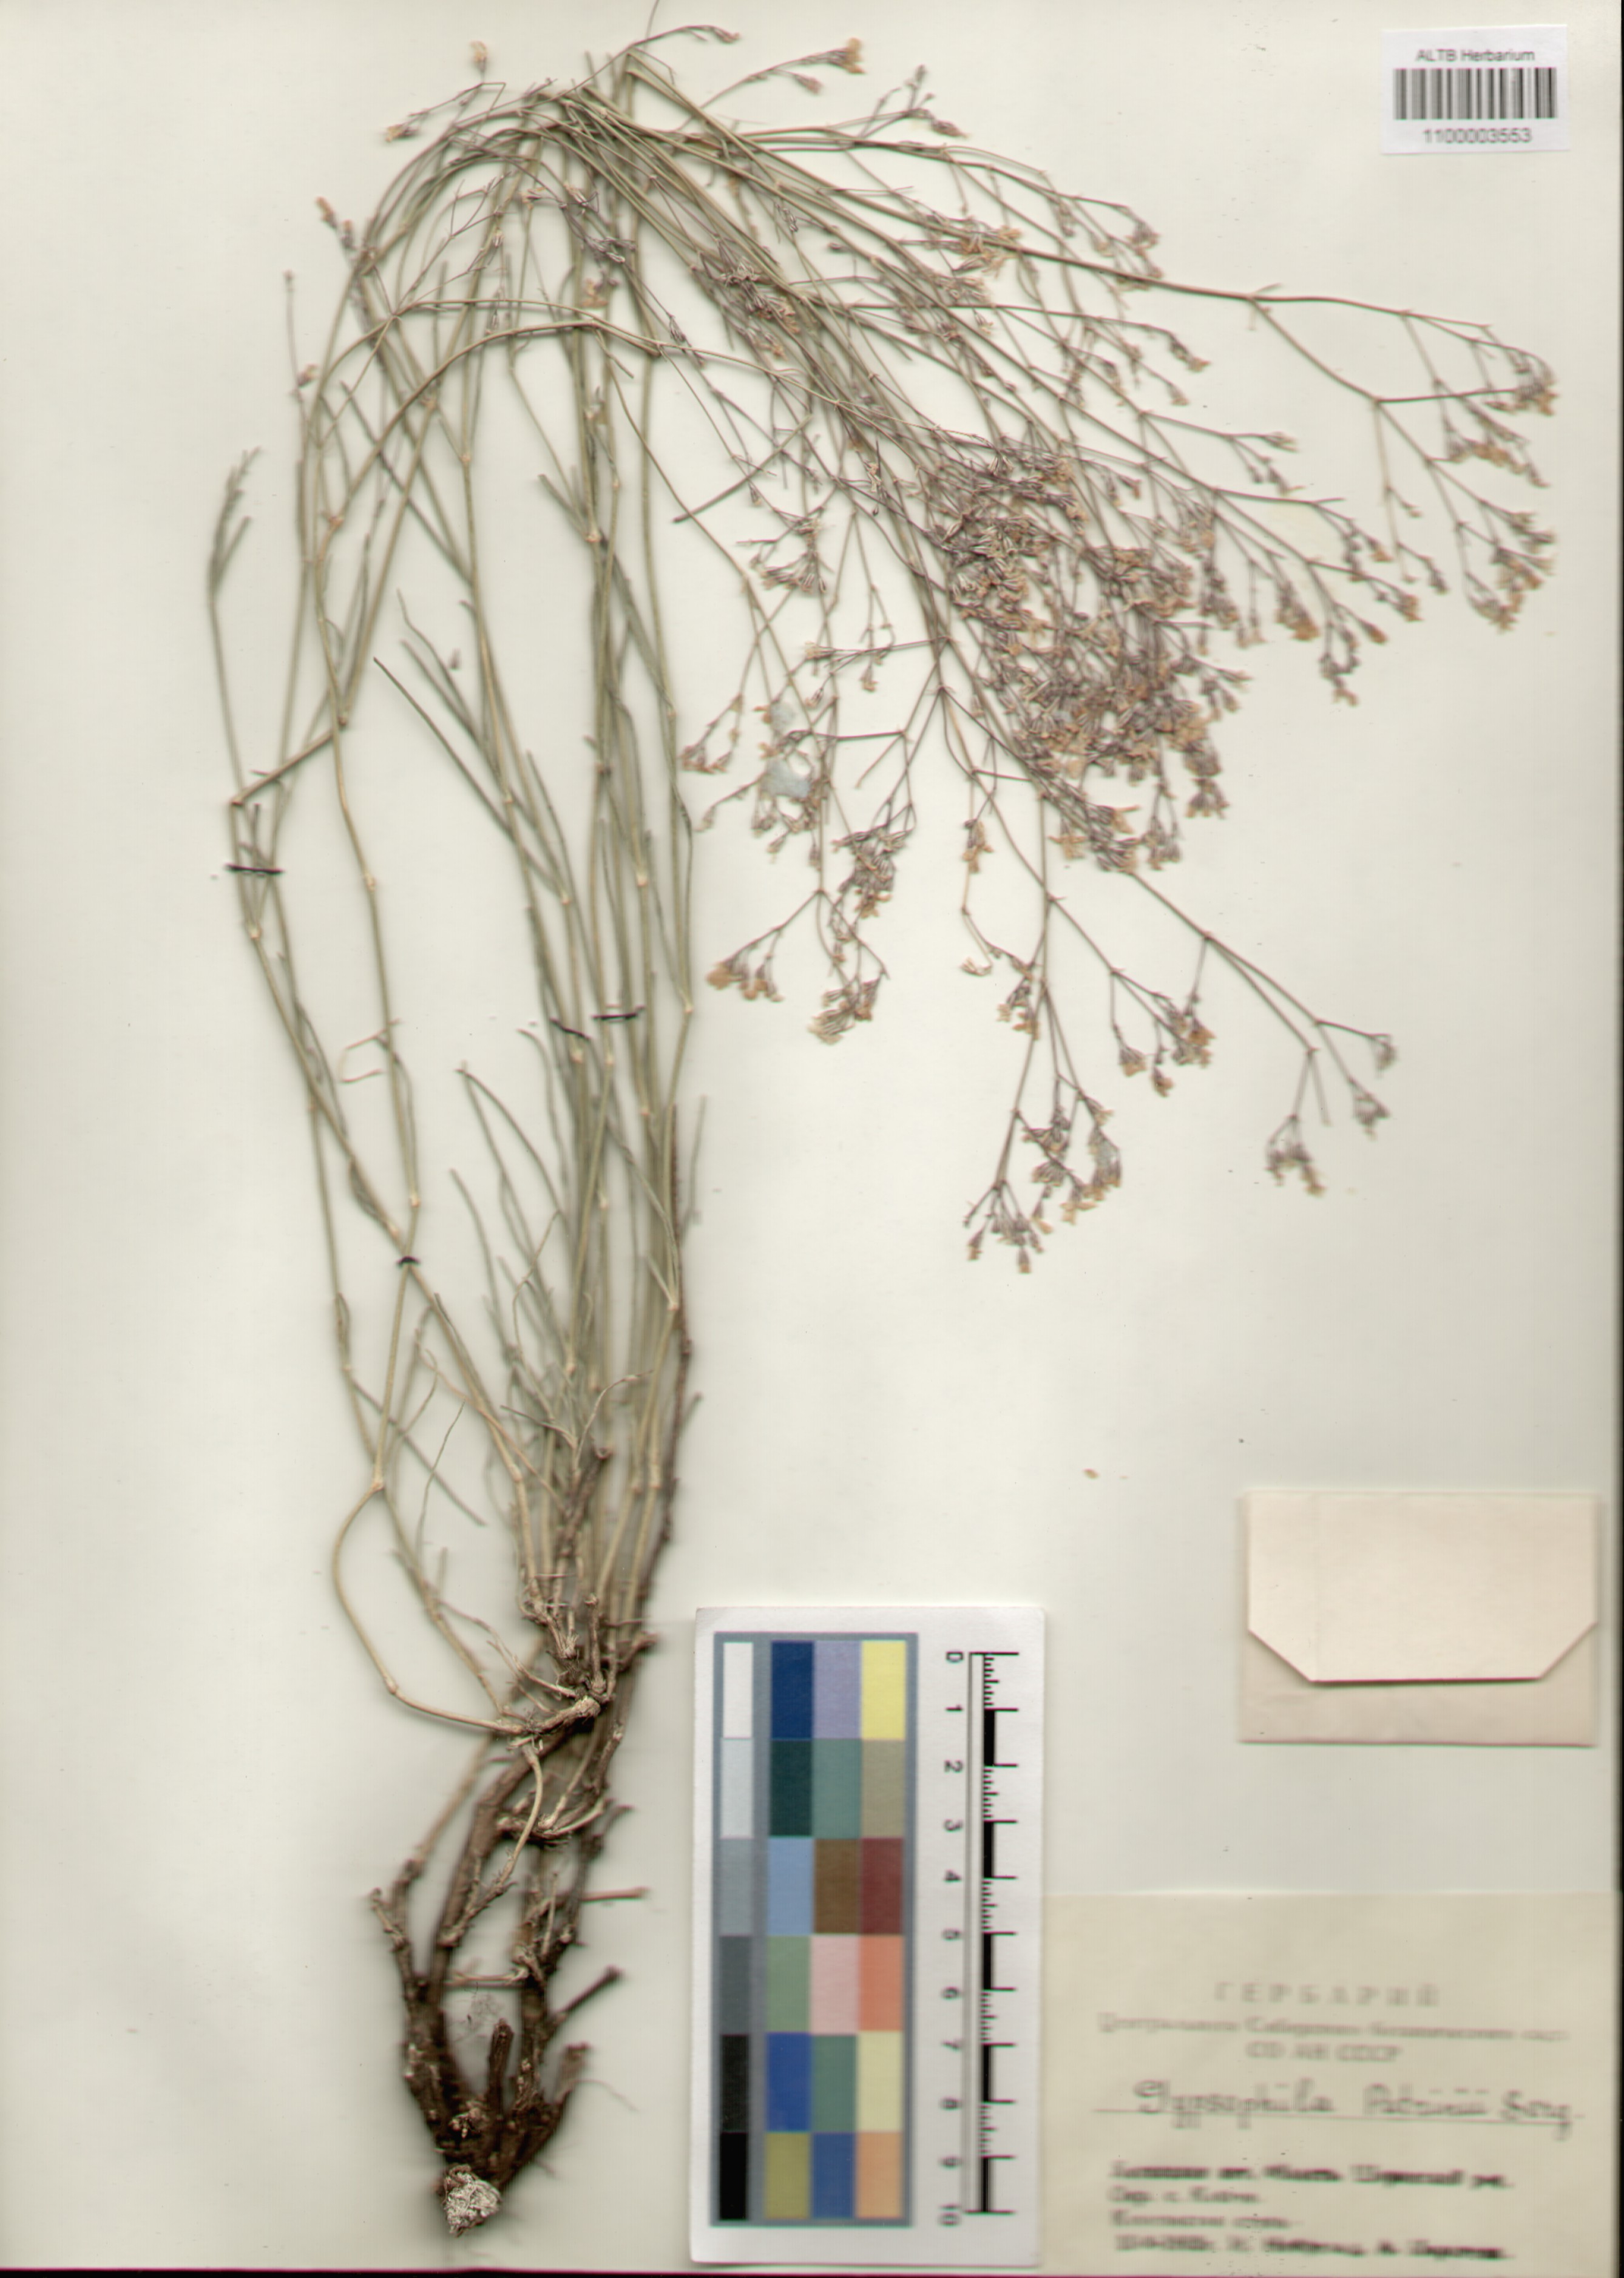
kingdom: Plantae
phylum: Tracheophyta
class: Magnoliopsida
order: Caryophyllales
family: Caryophyllaceae
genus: Gypsophila
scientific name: Gypsophila patrinii
